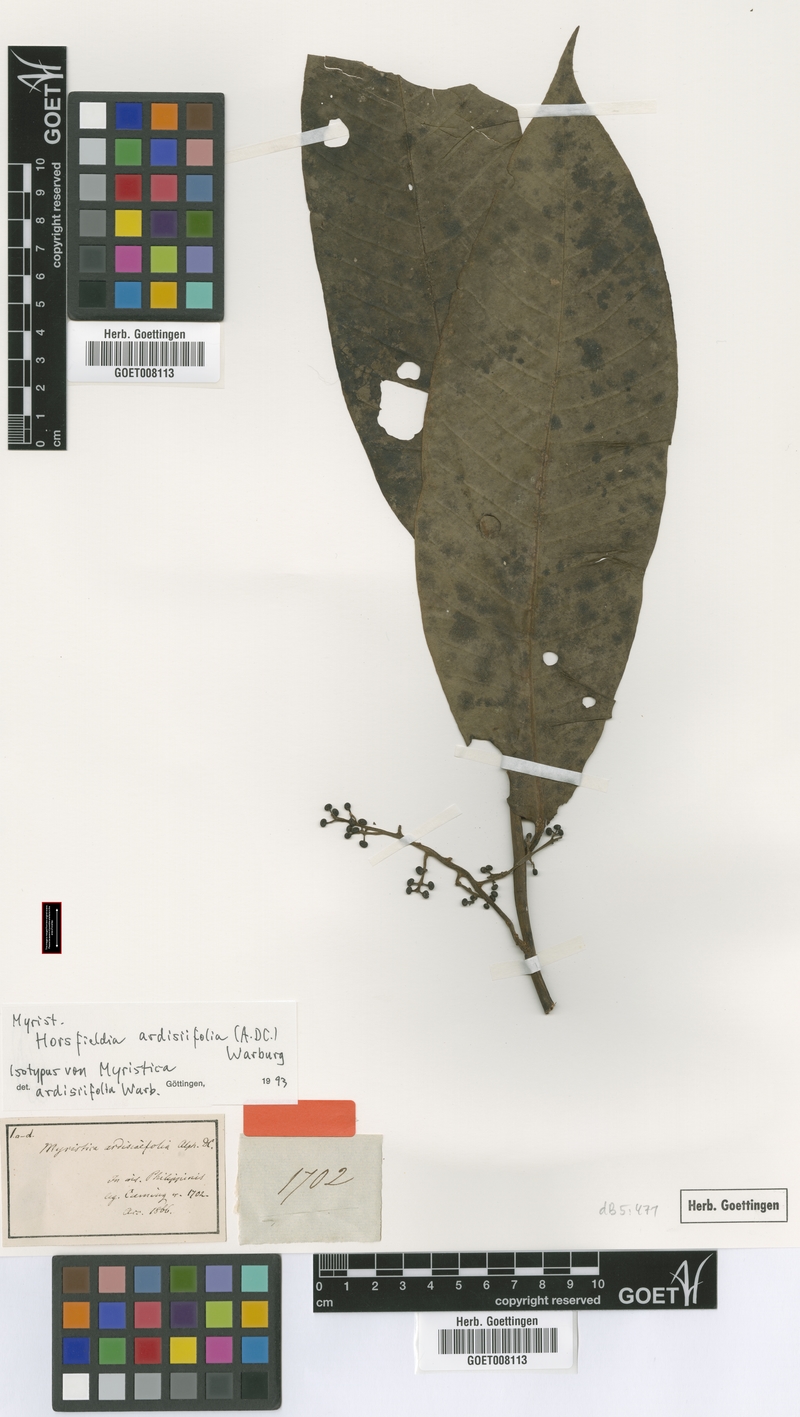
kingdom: Plantae
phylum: Tracheophyta
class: Magnoliopsida
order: Magnoliales
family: Myristicaceae
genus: Horsfieldia
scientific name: Horsfieldia ardisiifolia
